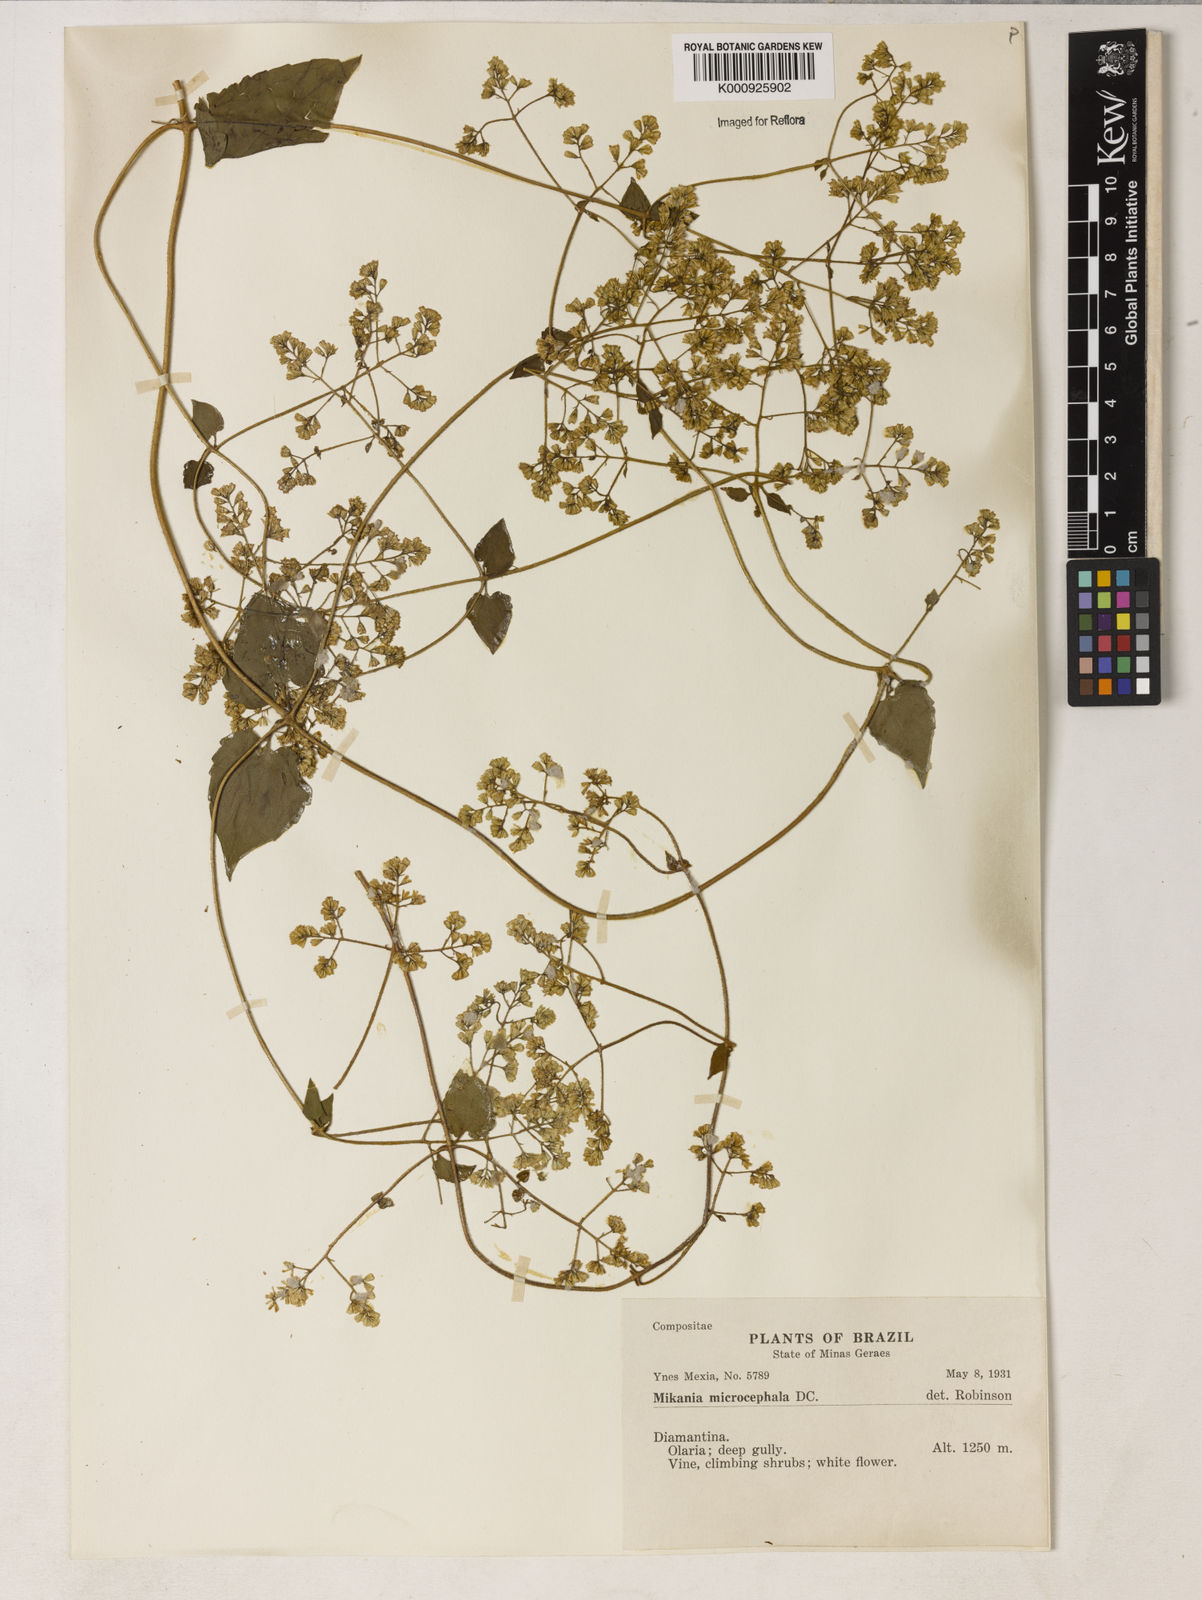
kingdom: Plantae
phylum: Tracheophyta
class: Magnoliopsida
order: Asterales
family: Asteraceae
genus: Mikania
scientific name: Mikania microcephala
